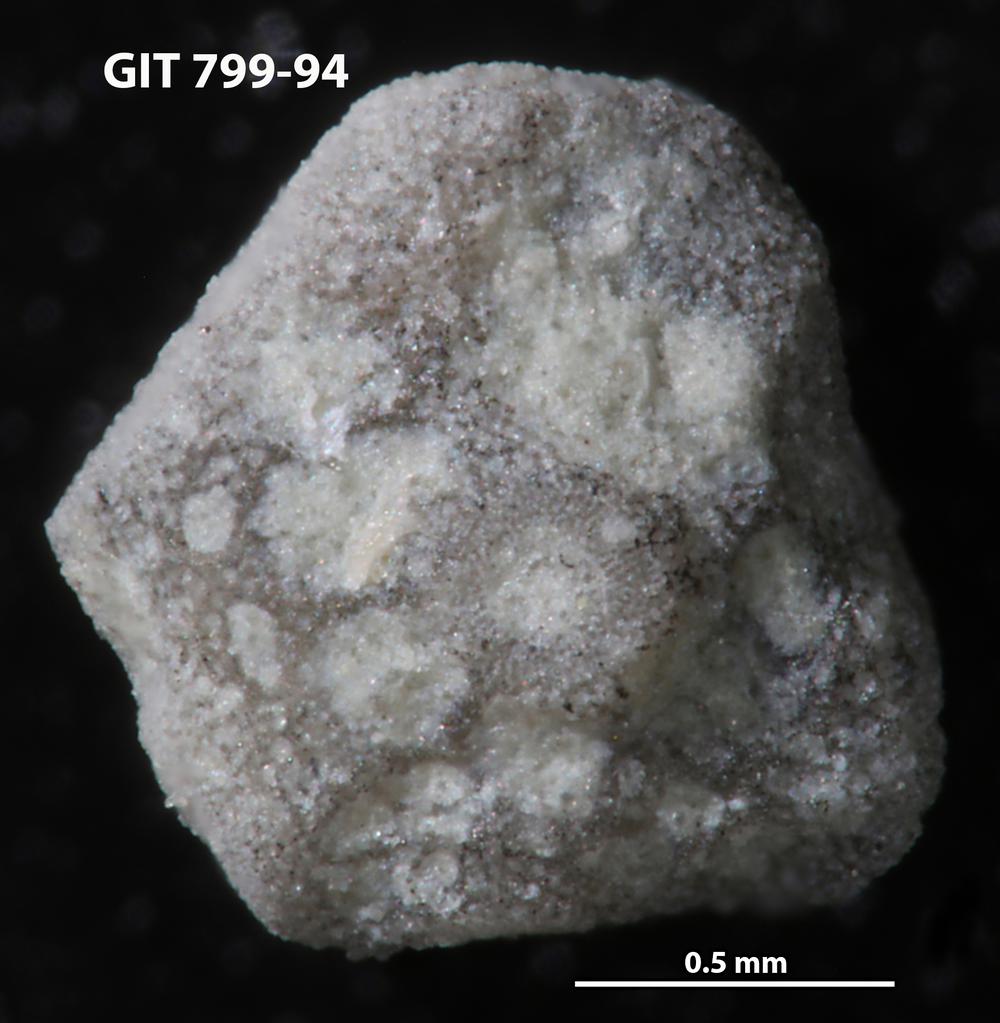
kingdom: Animalia
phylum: Echinodermata
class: Echinoidea
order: Bothriocidaroida
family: Bothriocidaridae
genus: Neobothriocidaris
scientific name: Neobothriocidaris
